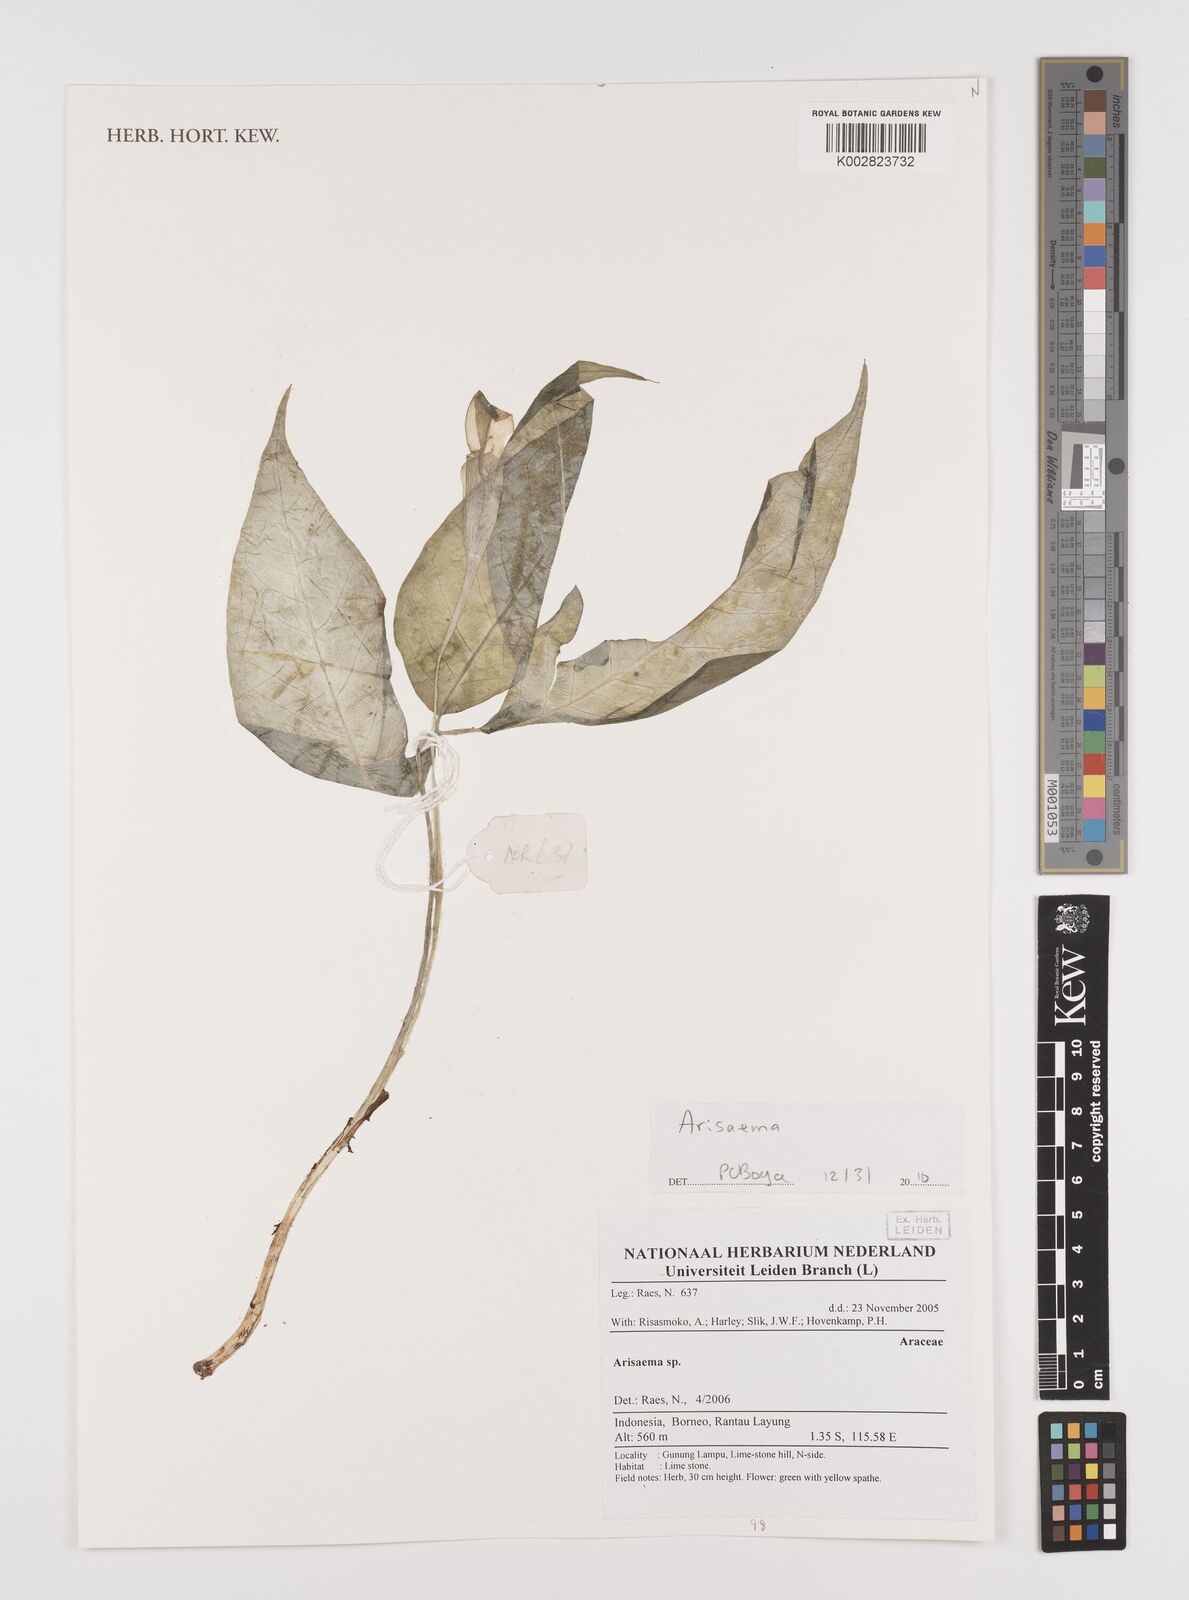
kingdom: Plantae
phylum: Tracheophyta
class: Liliopsida
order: Alismatales
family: Araceae
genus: Arisaema
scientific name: Arisaema
